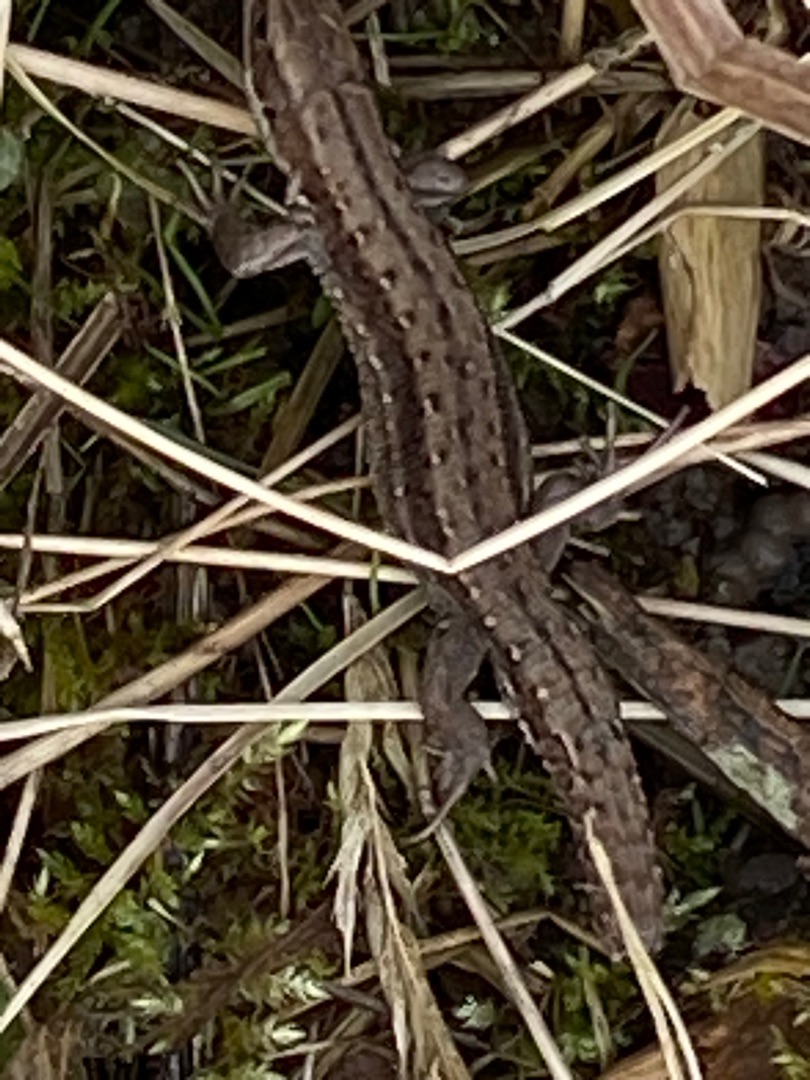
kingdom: Animalia
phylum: Chordata
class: Squamata
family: Lacertidae
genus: Zootoca
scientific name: Zootoca vivipara
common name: Skovfirben
